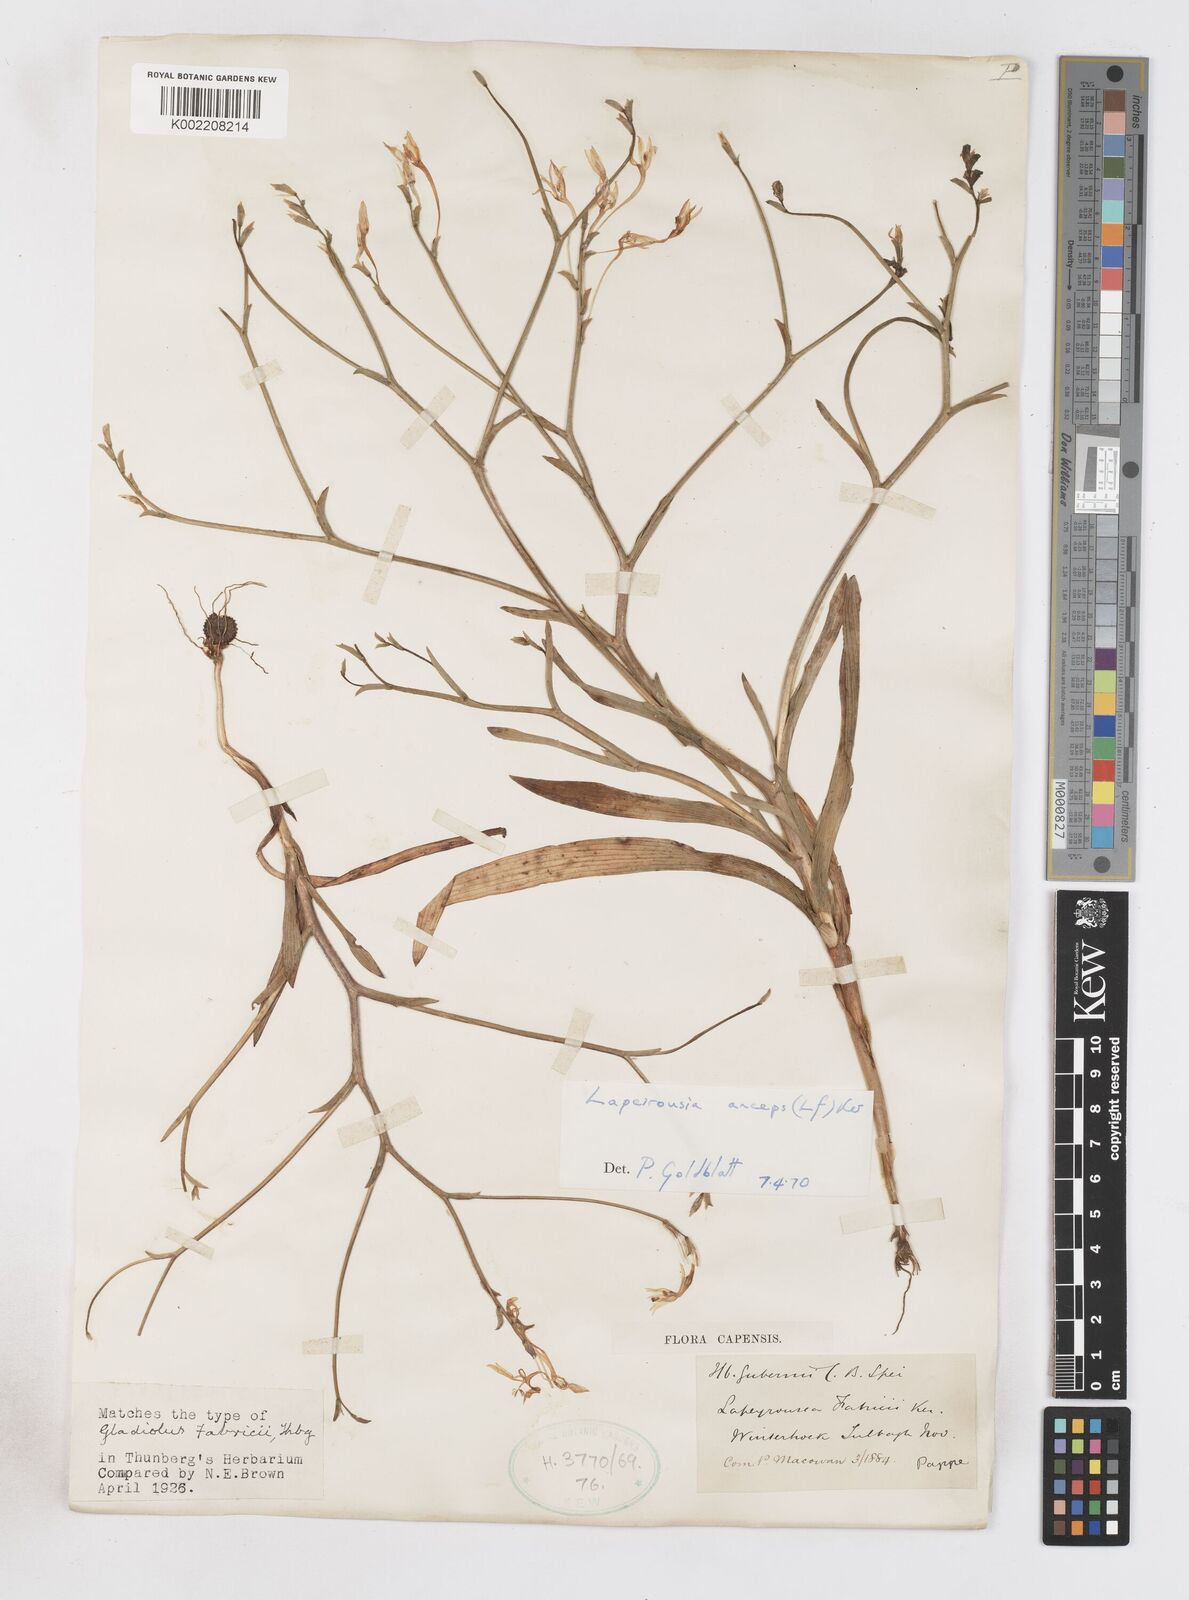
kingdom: Plantae
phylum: Tracheophyta
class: Liliopsida
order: Asparagales
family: Iridaceae
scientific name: Iridaceae
